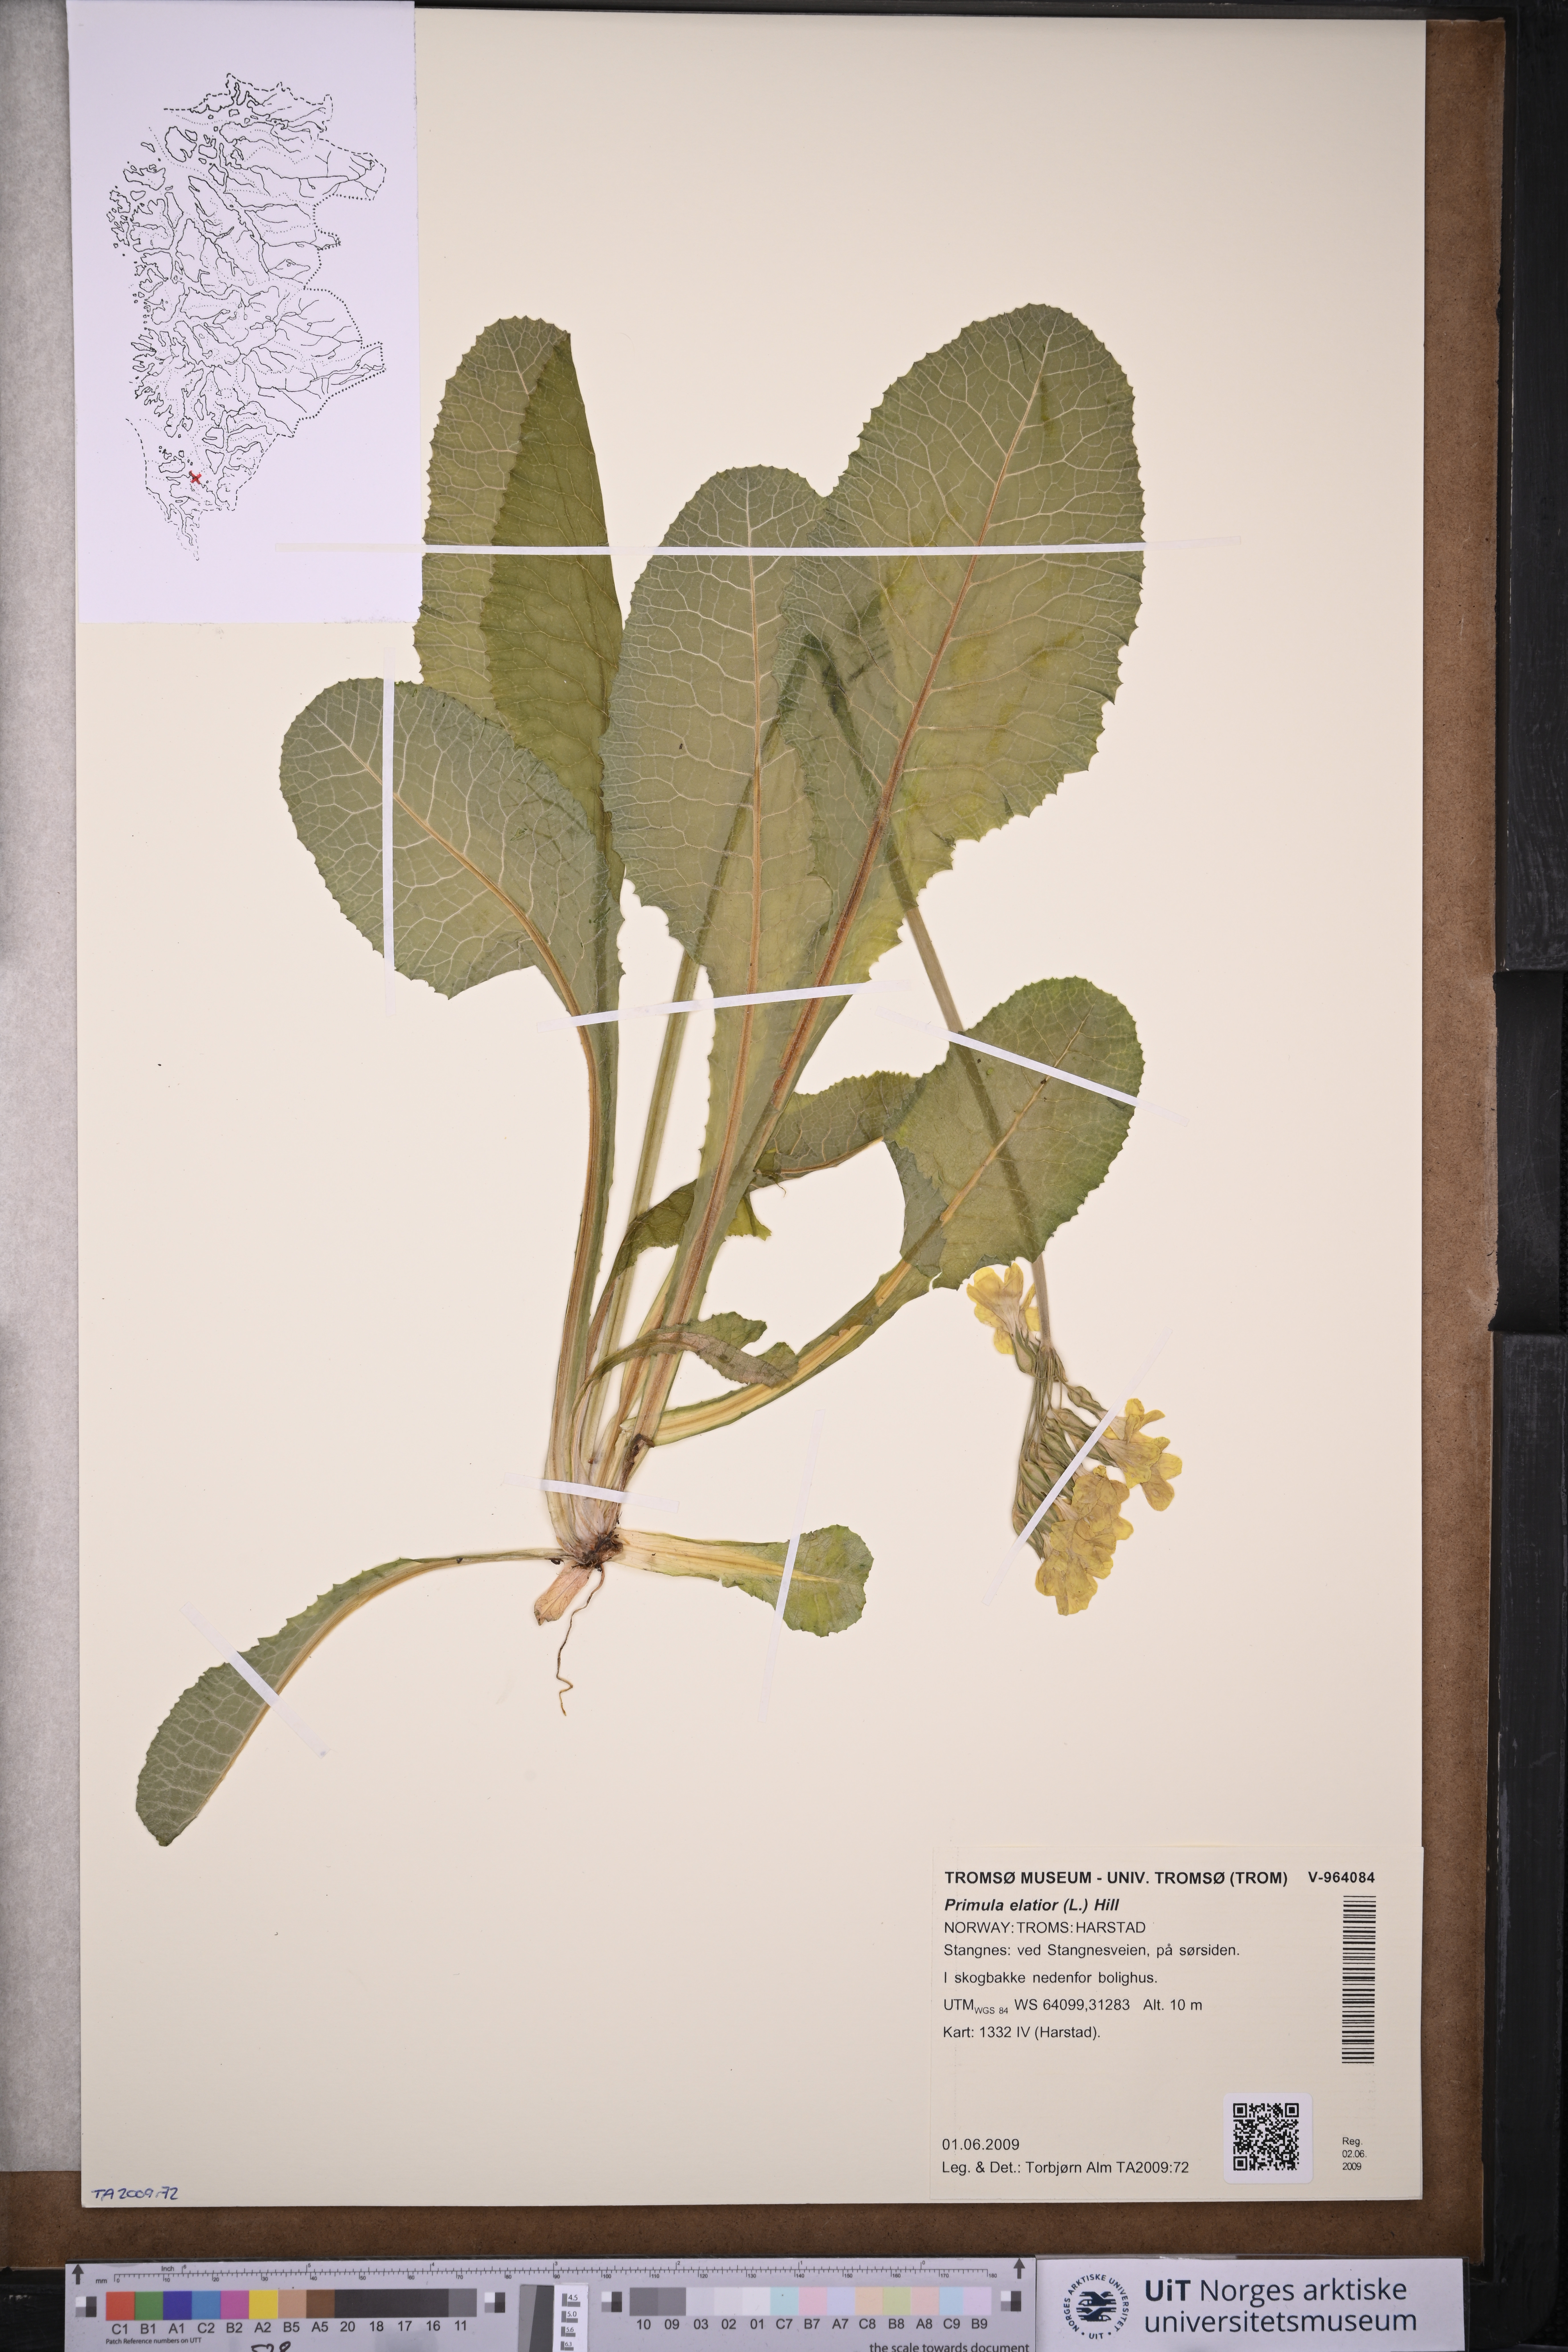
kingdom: Plantae
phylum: Tracheophyta
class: Magnoliopsida
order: Ericales
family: Primulaceae
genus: Primula
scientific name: Primula elatior
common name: Oxlip
